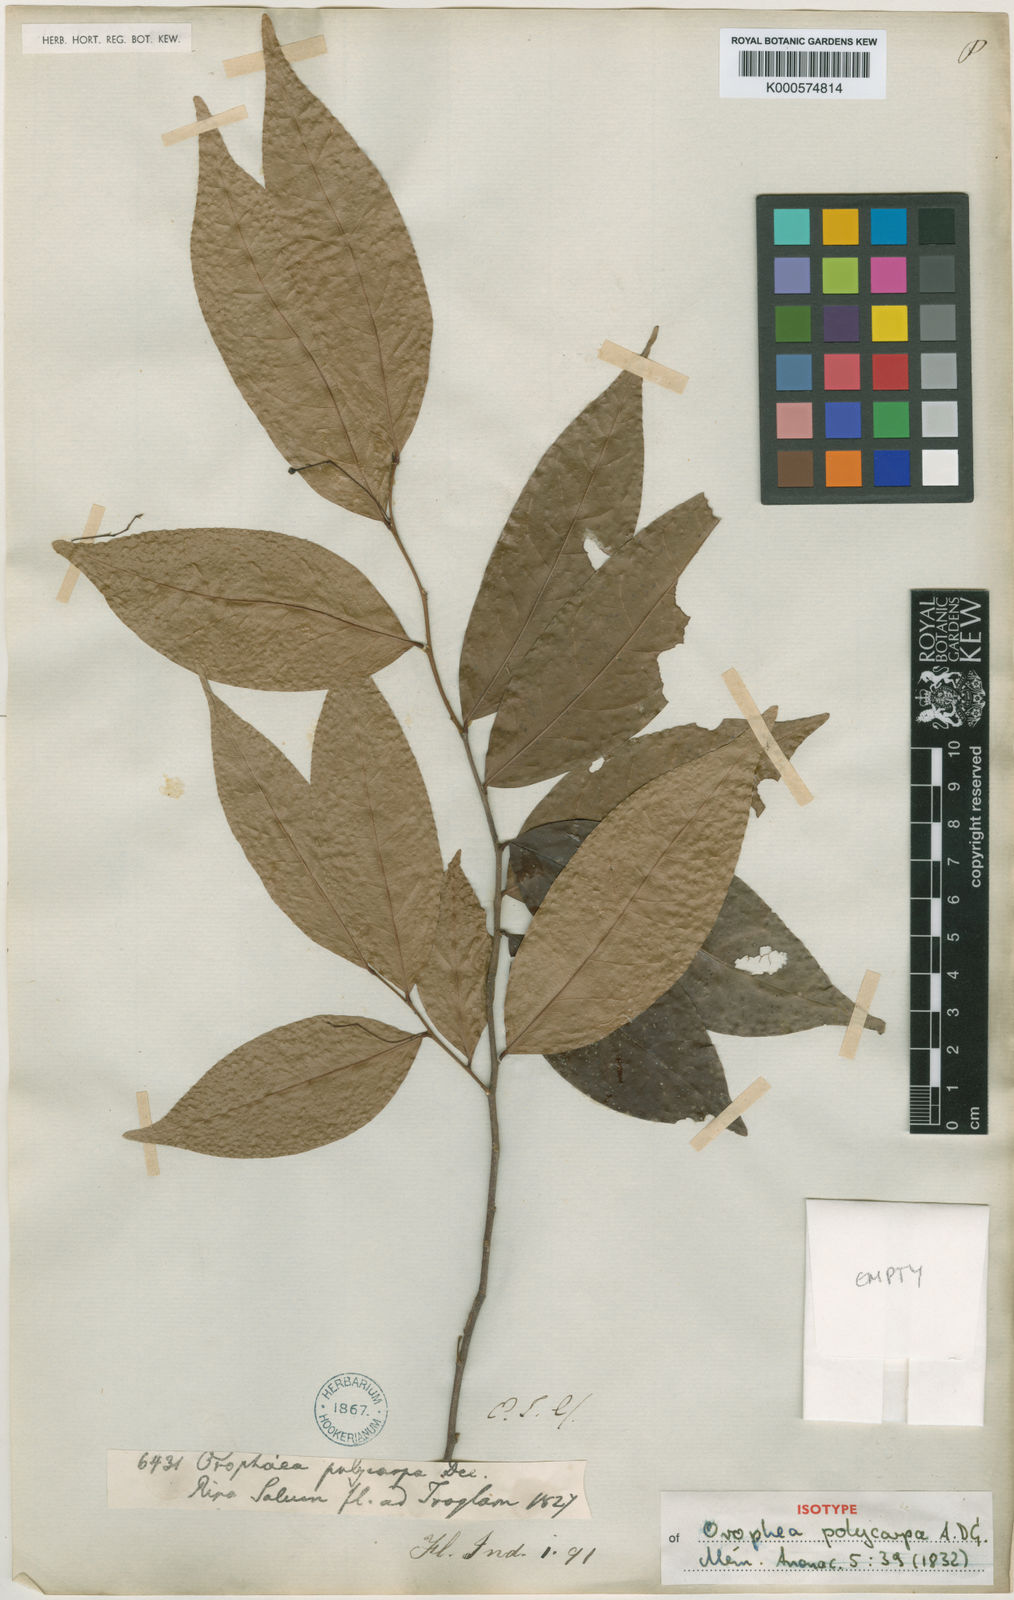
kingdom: Plantae
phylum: Tracheophyta
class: Magnoliopsida
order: Magnoliales
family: Annonaceae
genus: Orophea
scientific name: Orophea polycarpa
